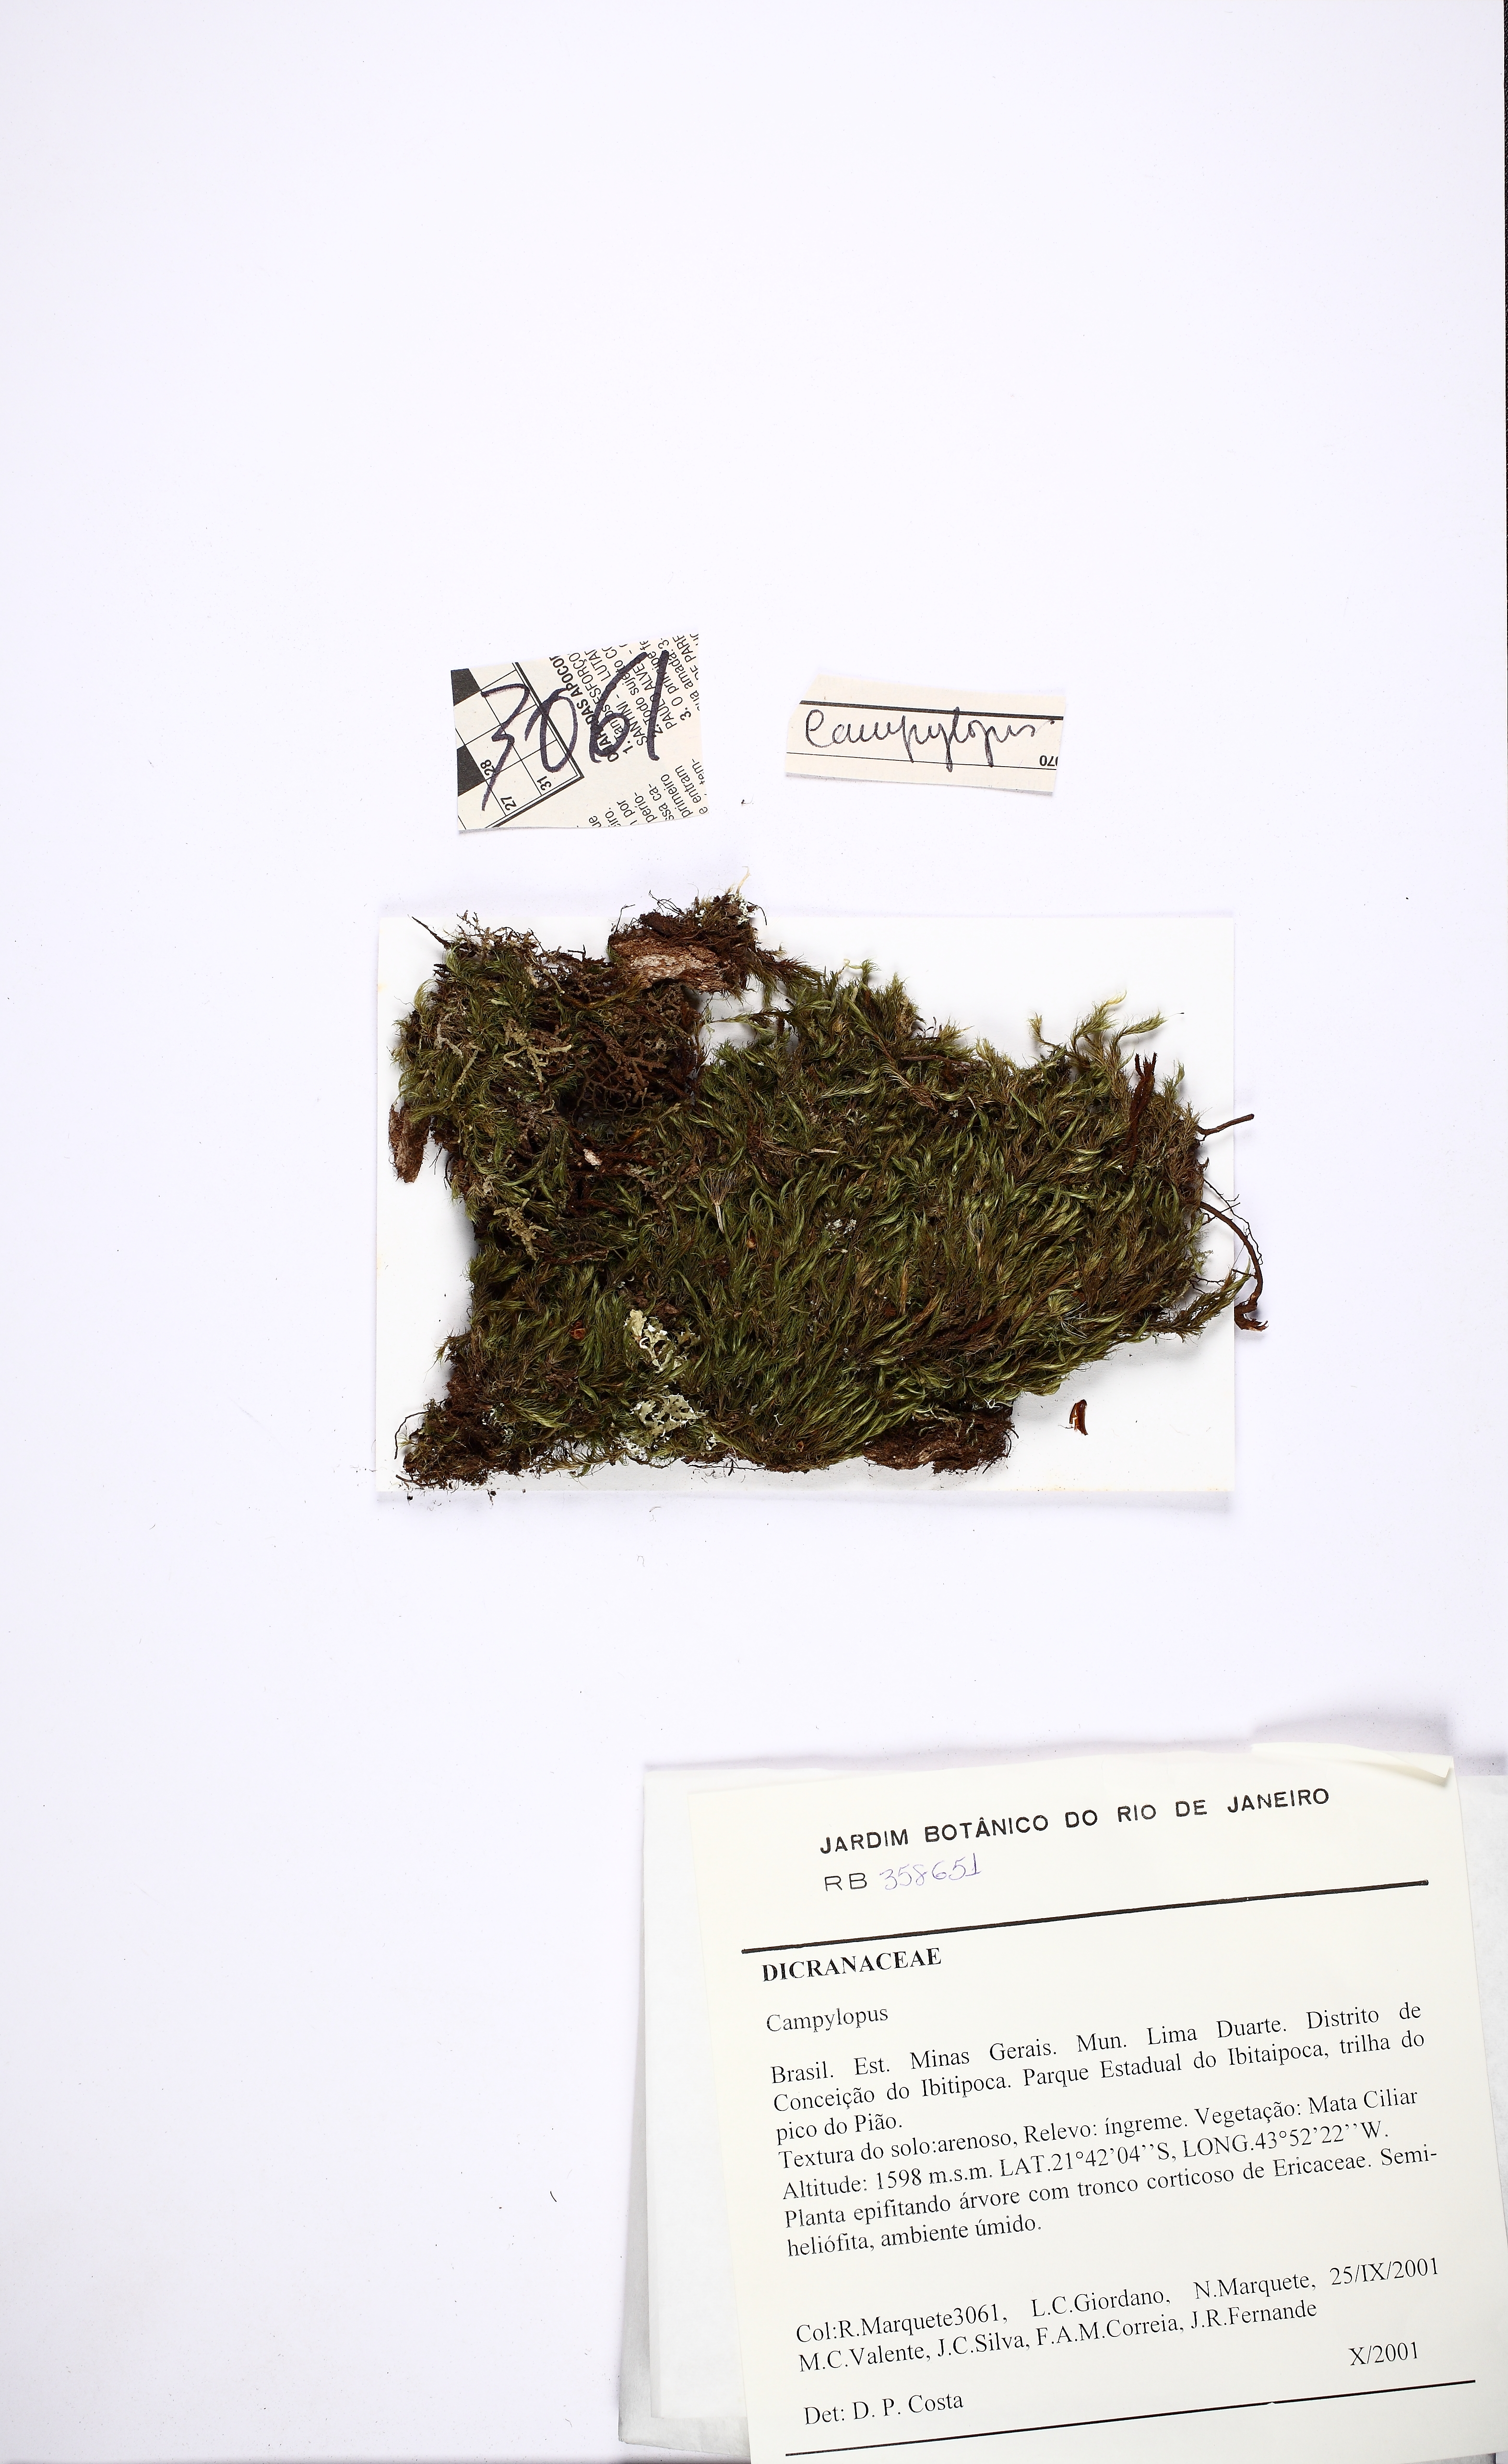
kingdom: Plantae
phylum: Bryophyta
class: Bryopsida
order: Dicranales
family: Leucobryaceae
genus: Campylopus
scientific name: Campylopus
